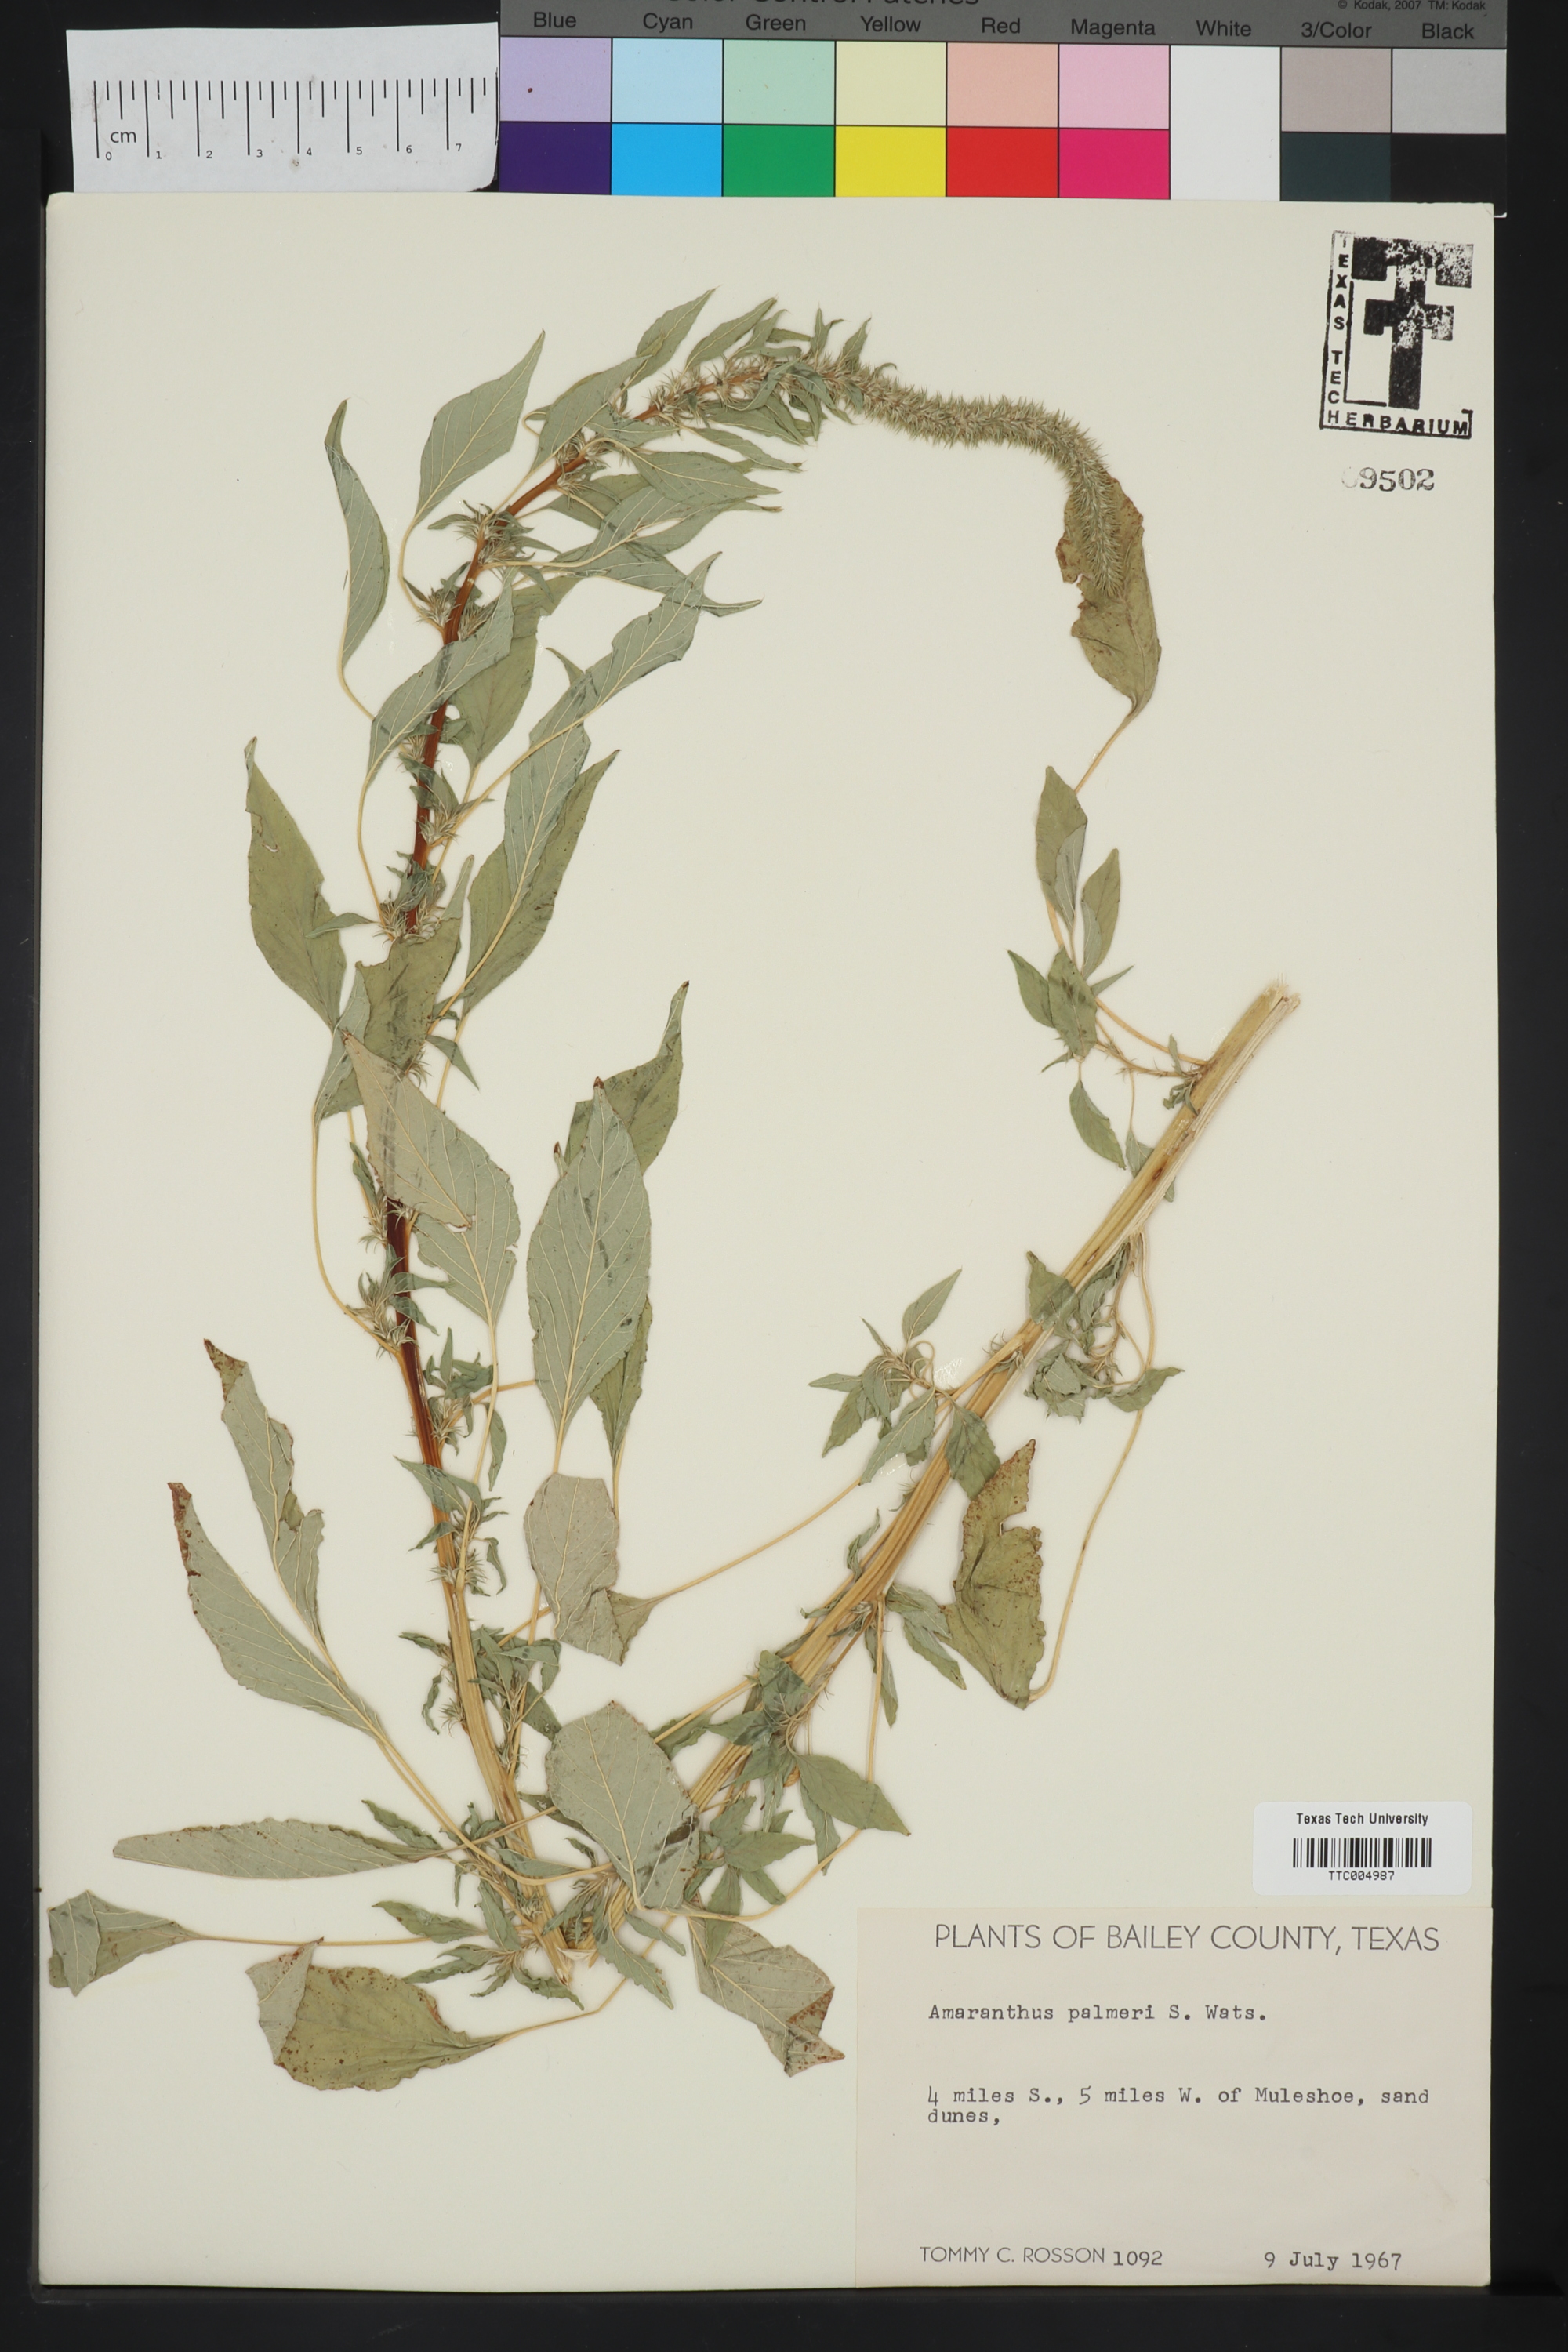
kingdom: Plantae
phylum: Tracheophyta
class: Magnoliopsida
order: Caryophyllales
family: Amaranthaceae
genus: Amaranthus
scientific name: Amaranthus palmeri
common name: Dioecious amaranth
